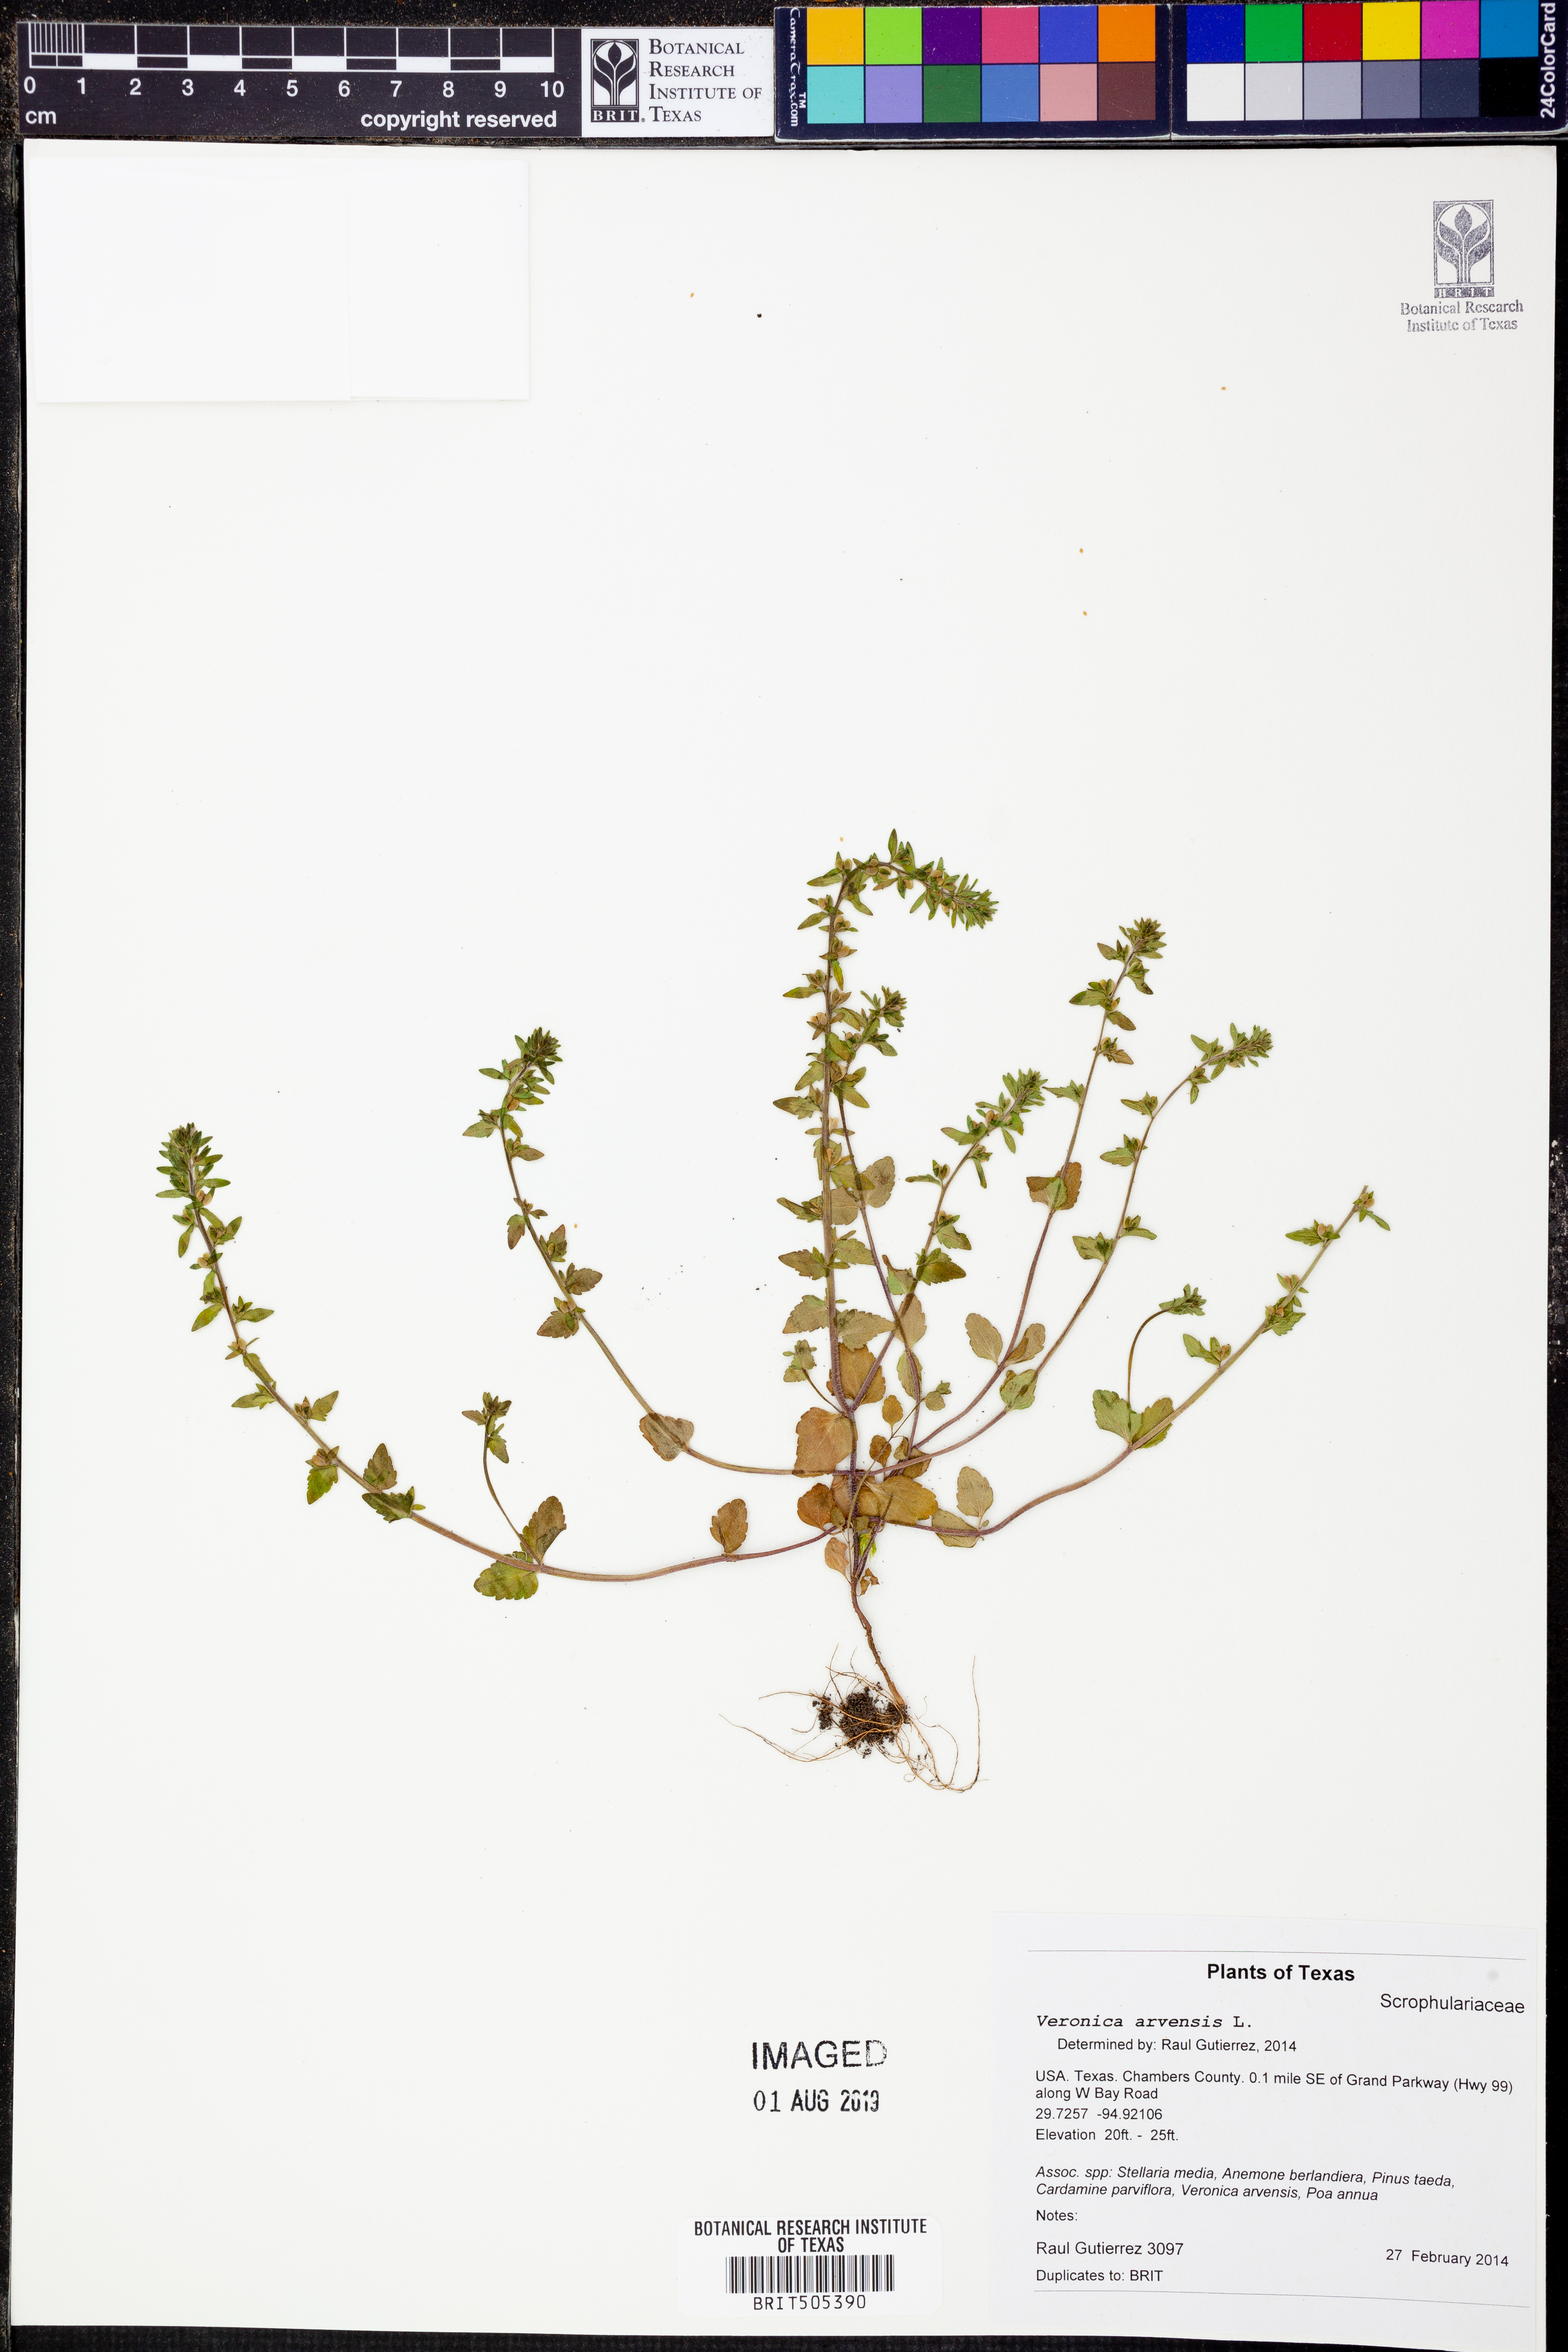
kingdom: Plantae
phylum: Tracheophyta
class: Magnoliopsida
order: Lamiales
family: Plantaginaceae
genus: Veronica
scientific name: Veronica arvensis
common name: Corn speedwell
